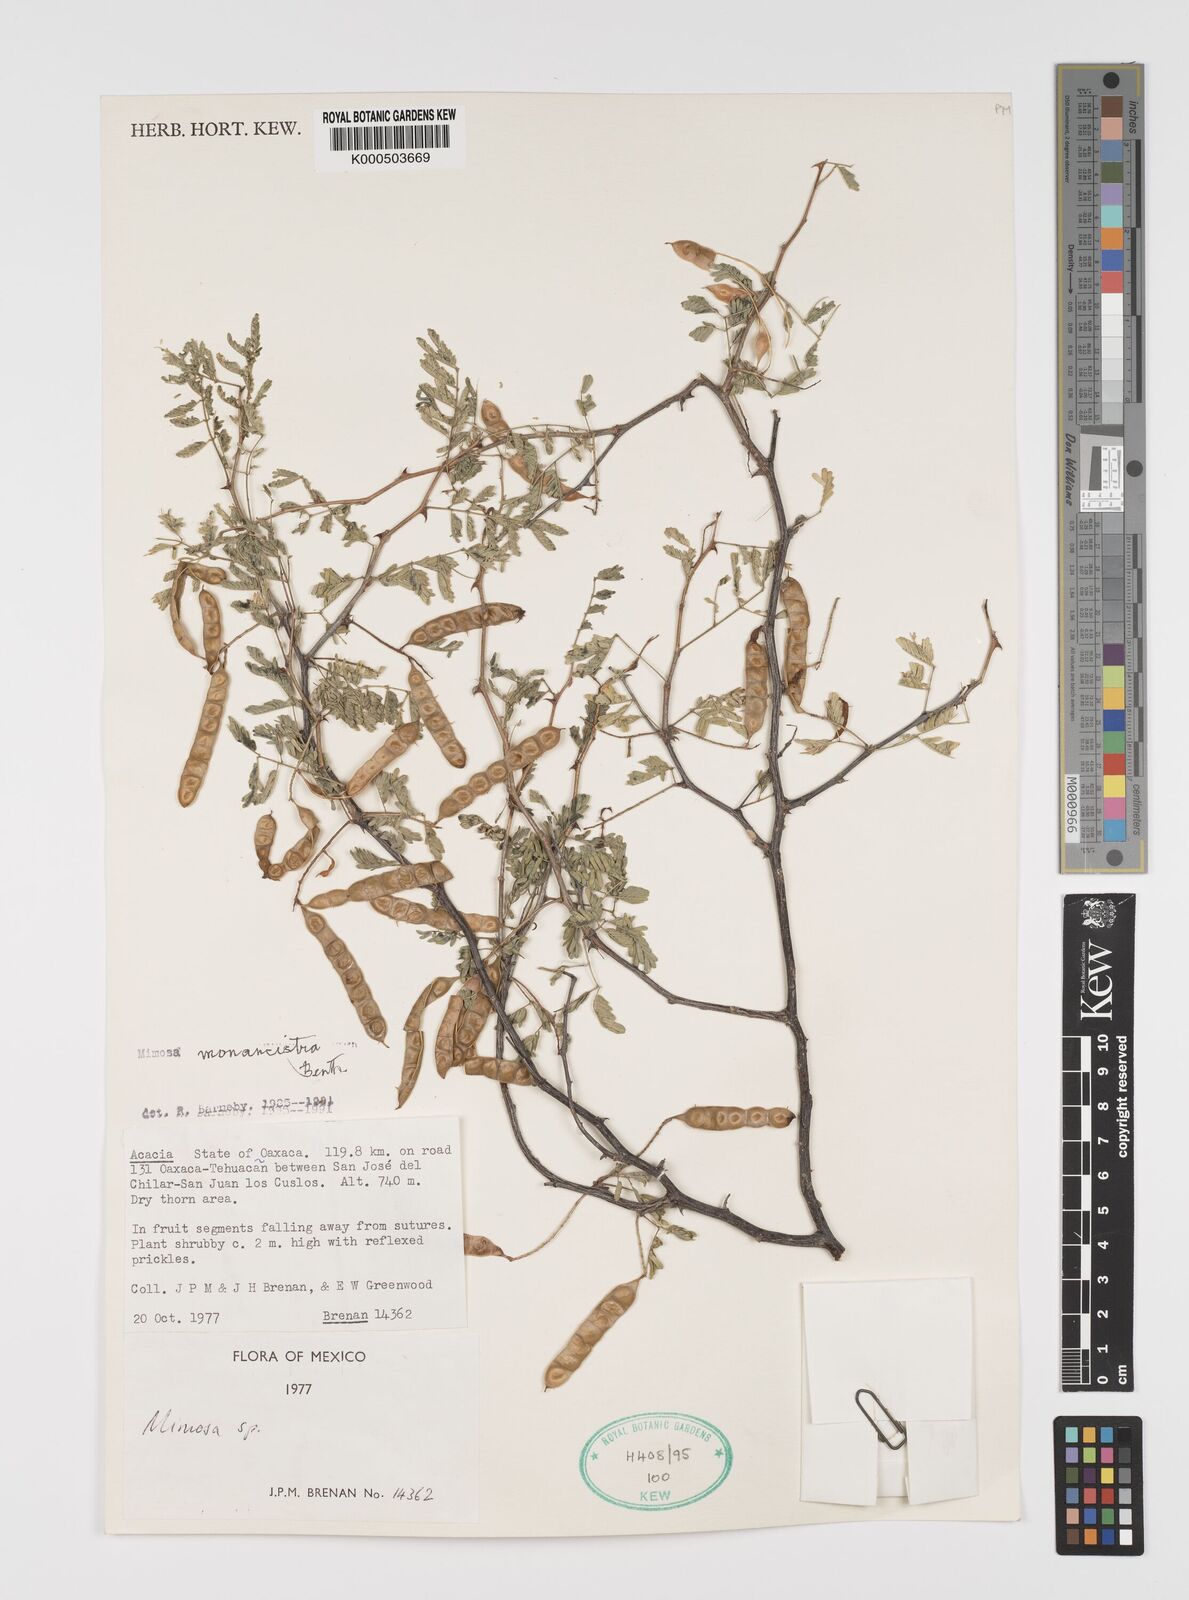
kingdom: Plantae
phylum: Tracheophyta
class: Magnoliopsida
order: Fabales
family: Fabaceae
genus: Mimosa
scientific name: Mimosa monancistra
